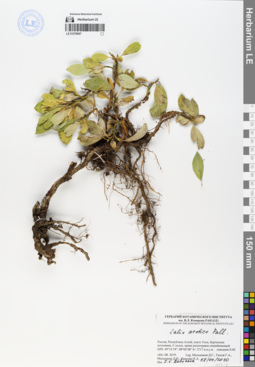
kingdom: Plantae
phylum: Tracheophyta
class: Magnoliopsida
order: Malpighiales
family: Salicaceae
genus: Salix
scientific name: Salix arctica
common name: Arctic willow
